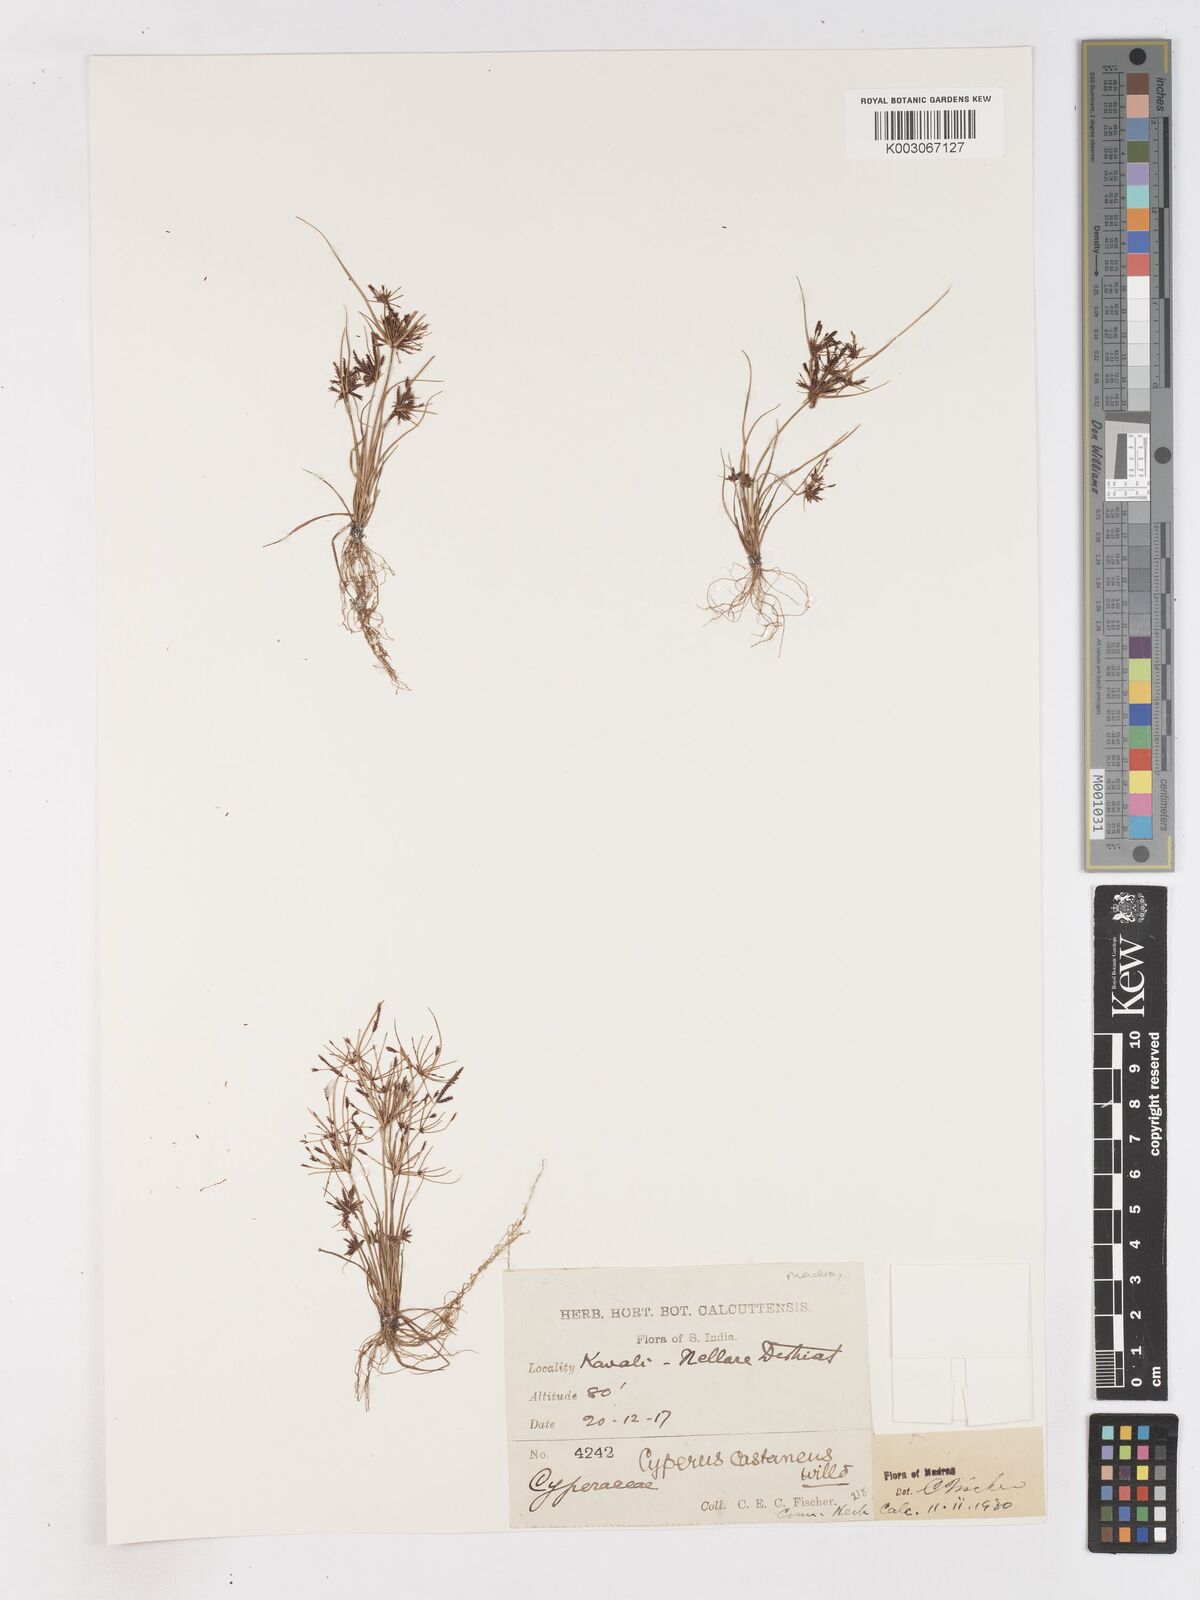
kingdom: Plantae
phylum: Tracheophyta
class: Liliopsida
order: Poales
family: Cyperaceae
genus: Cyperus
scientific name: Cyperus cuspidatus
